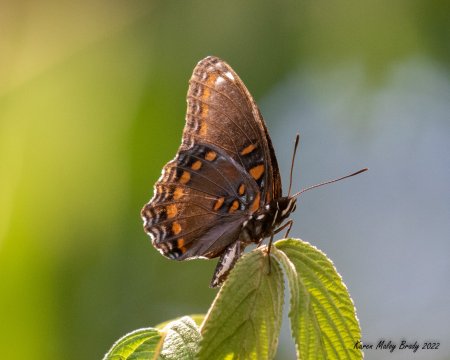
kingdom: Animalia
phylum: Arthropoda
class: Insecta
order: Lepidoptera
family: Nymphalidae
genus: Limenitis
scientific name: Limenitis arthemis
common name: Red-spotted Admiral
